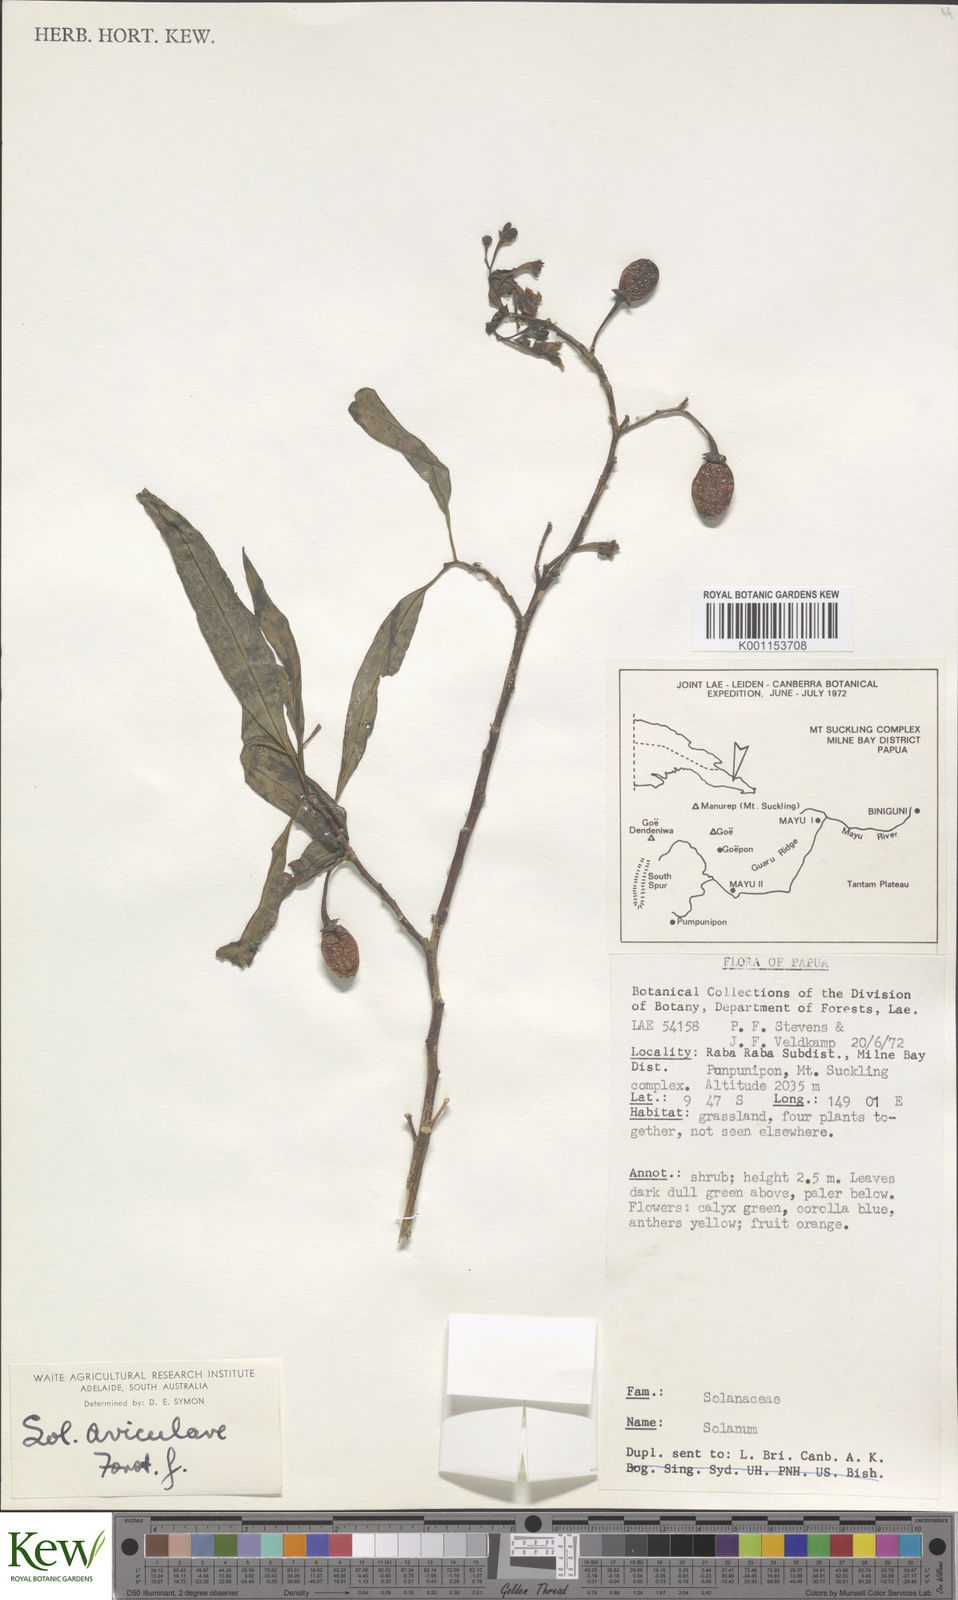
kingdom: Plantae
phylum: Tracheophyta
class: Magnoliopsida
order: Solanales
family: Solanaceae
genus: Solanum
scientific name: Solanum aviculare
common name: New zealand nightshade
